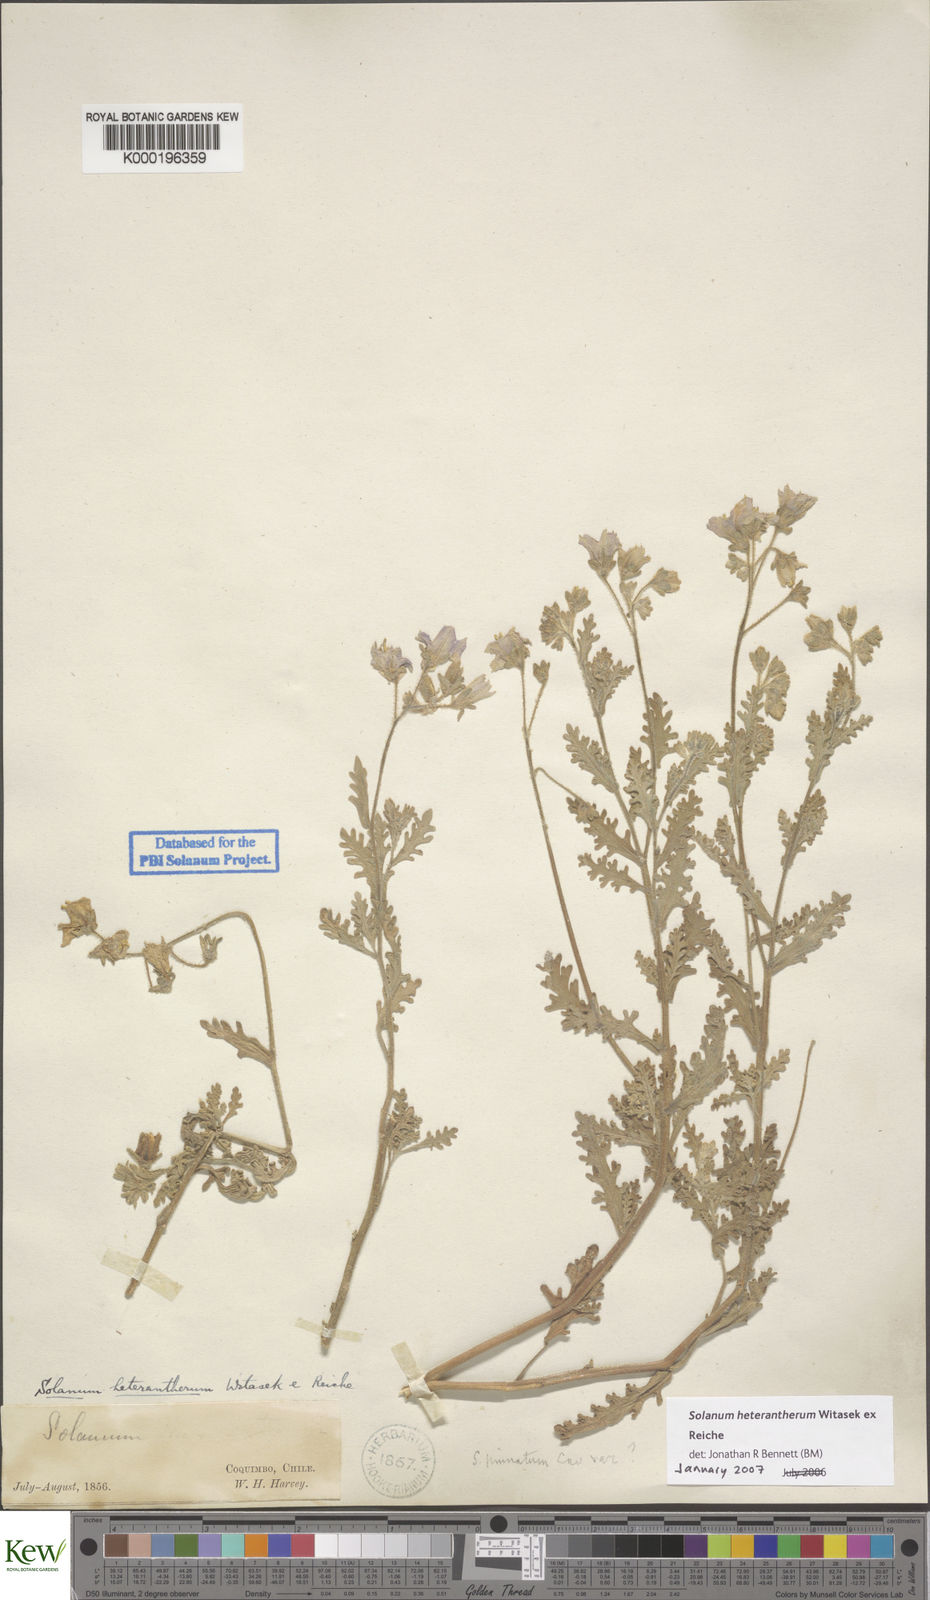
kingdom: Plantae
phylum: Tracheophyta
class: Magnoliopsida
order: Solanales
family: Solanaceae
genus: Solanum
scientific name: Solanum trinominum
